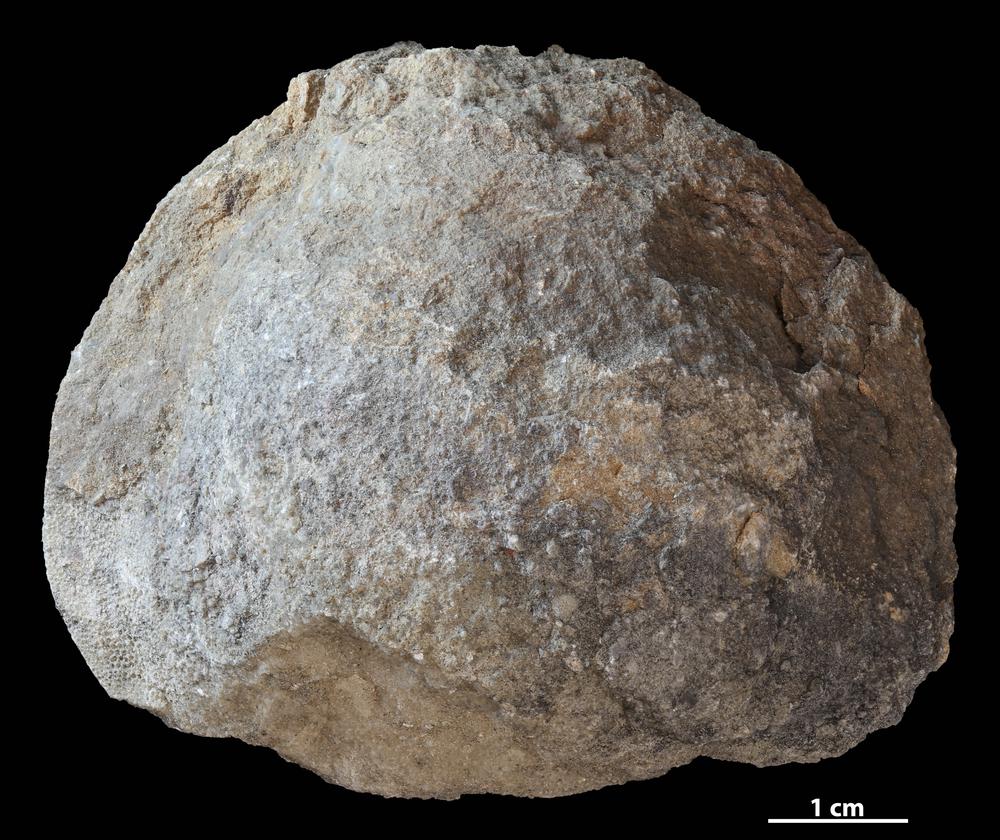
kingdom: Animalia
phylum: Bryozoa
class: Stenolaemata
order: Trepostomatida
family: Diplotrypidae
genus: Diplotrypa
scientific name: Diplotrypa
